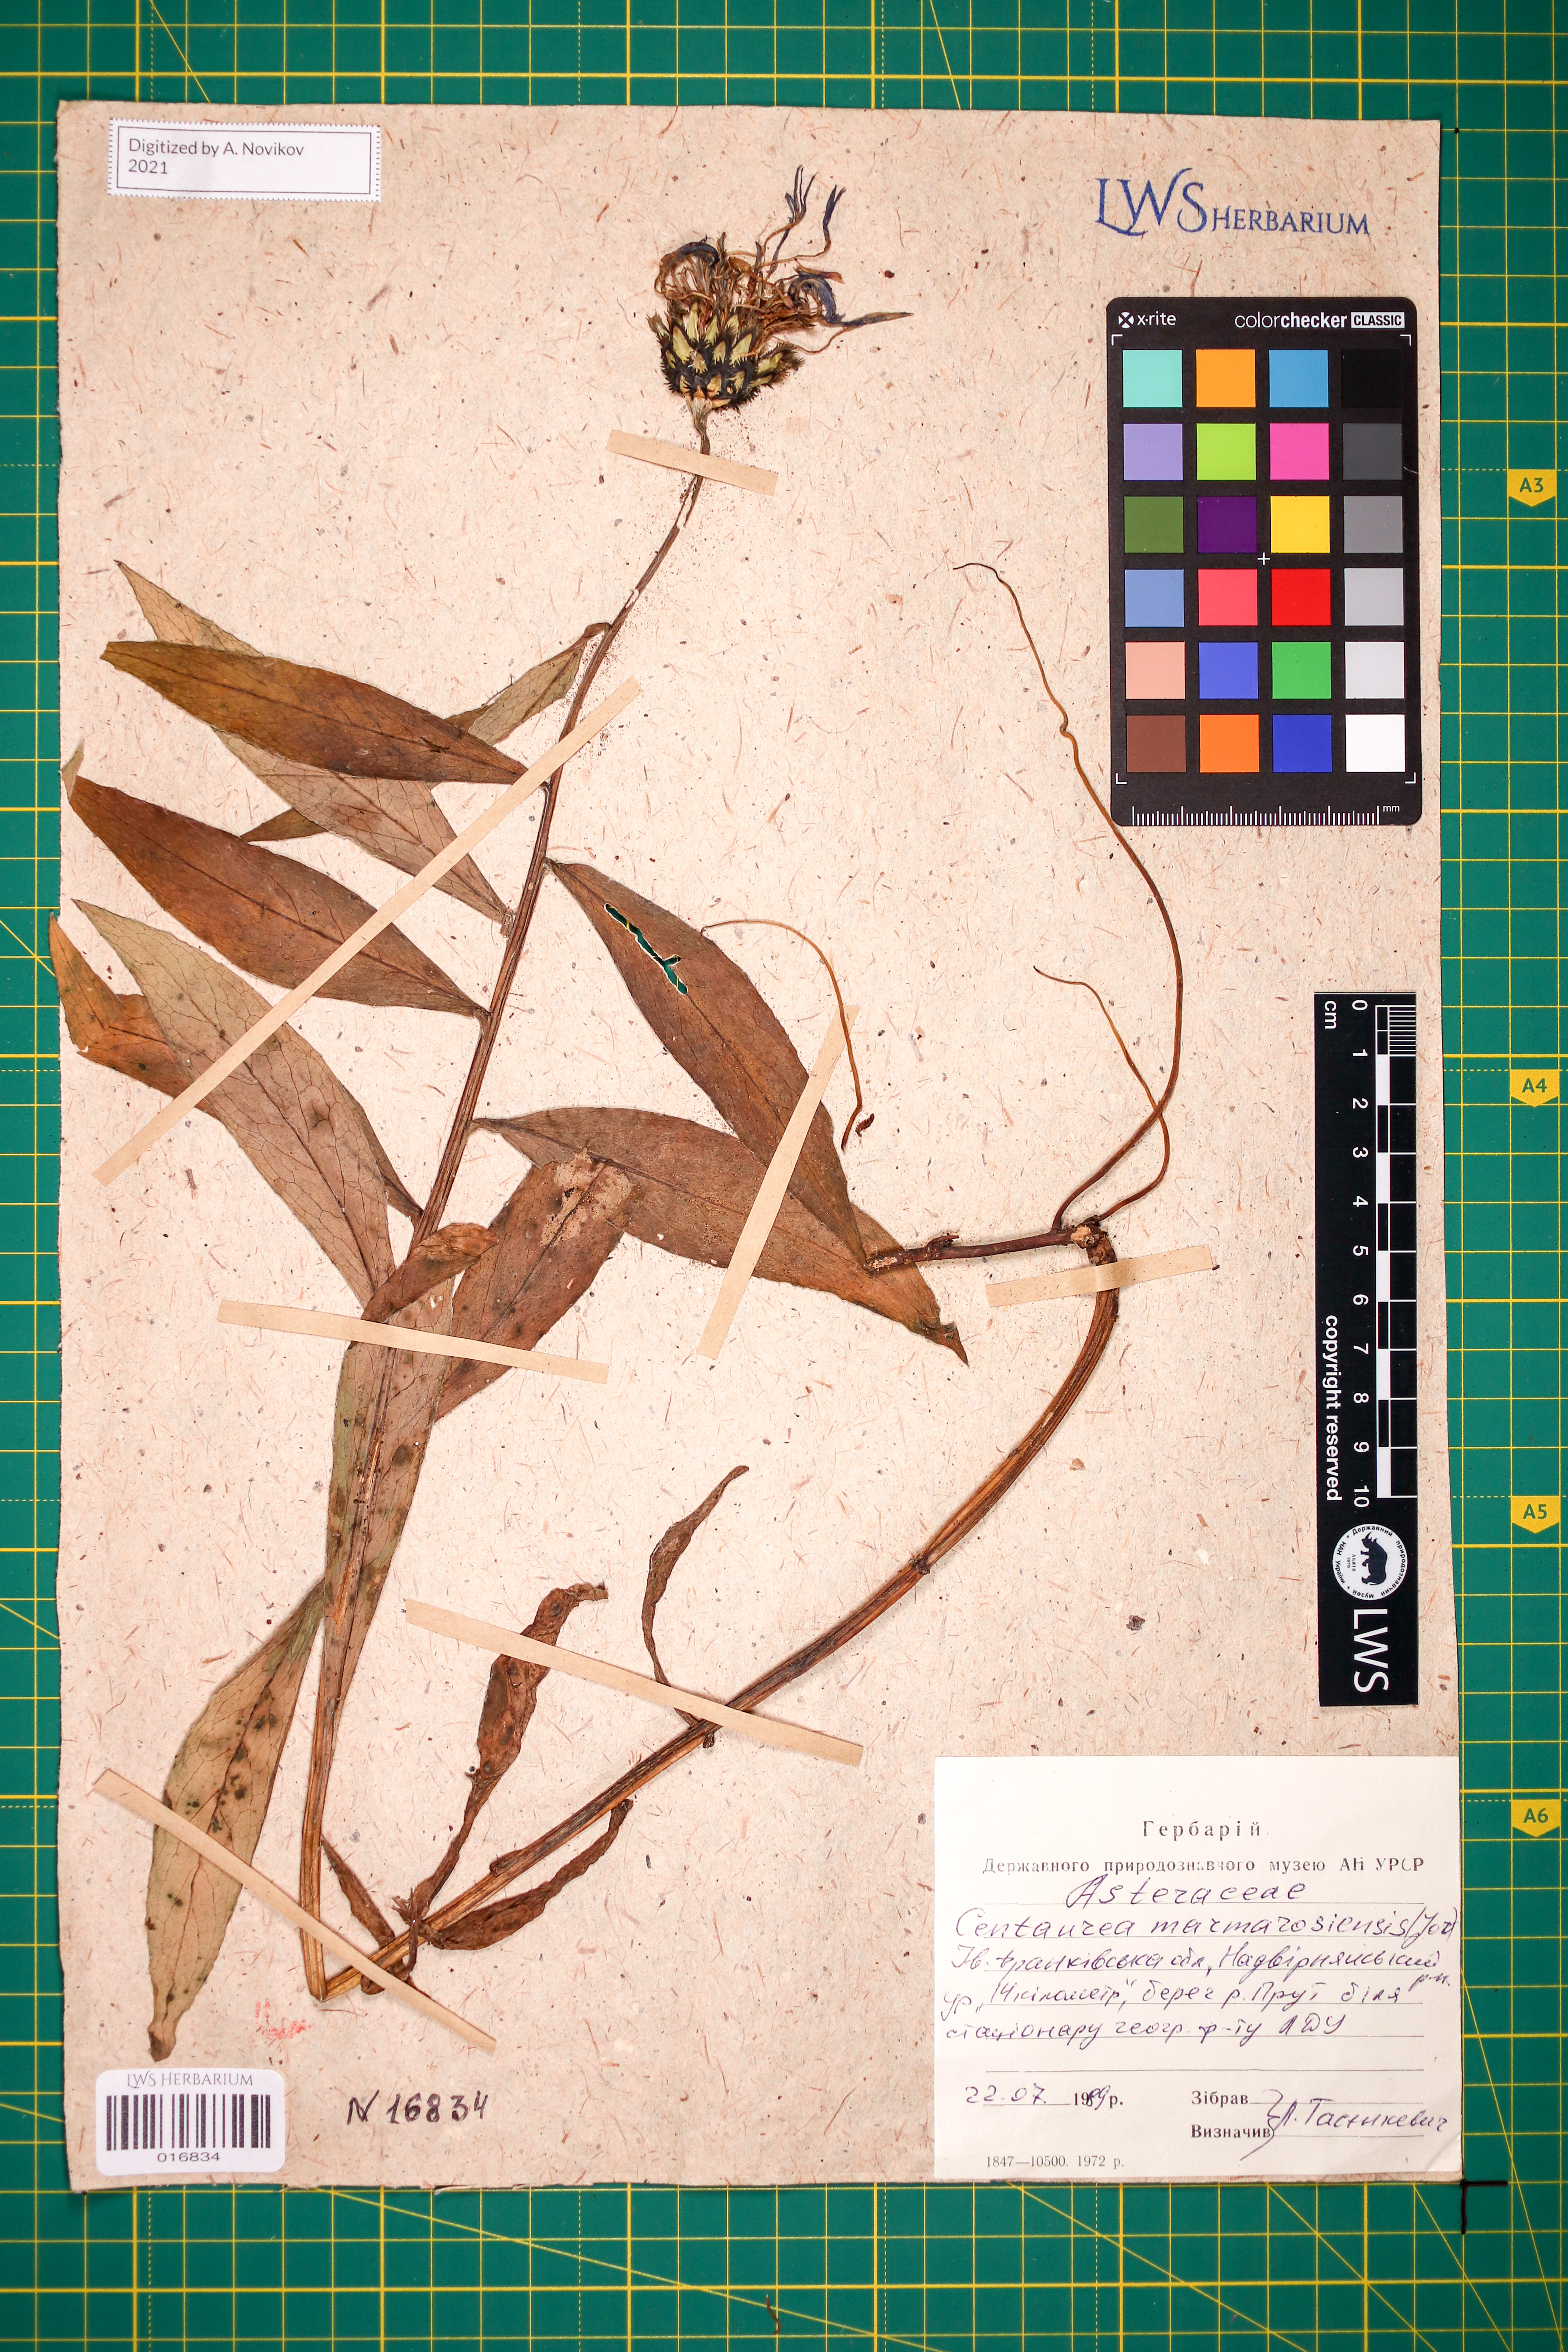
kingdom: Plantae
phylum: Tracheophyta
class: Magnoliopsida
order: Asterales
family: Asteraceae
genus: Centaurea
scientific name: Centaurea maramarosiensis
